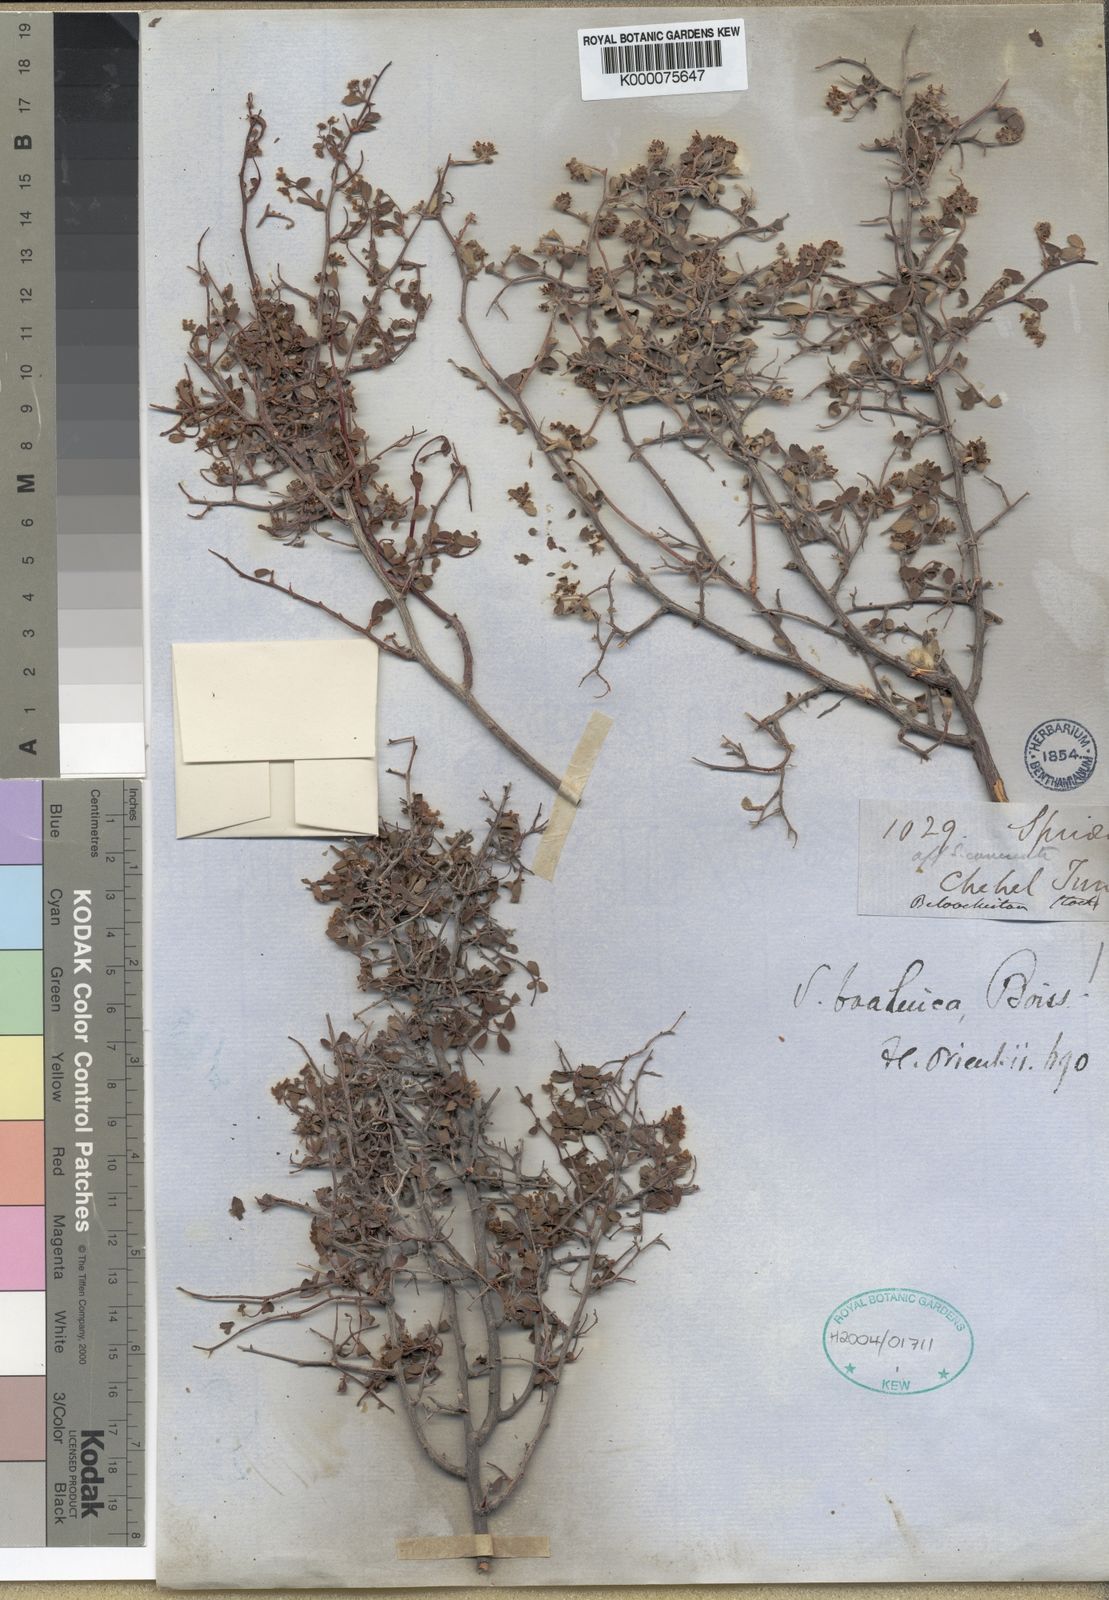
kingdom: Plantae
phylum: Tracheophyta
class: Magnoliopsida
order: Rosales
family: Rosaceae
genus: Spiraea
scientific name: Spiraea brahuica
